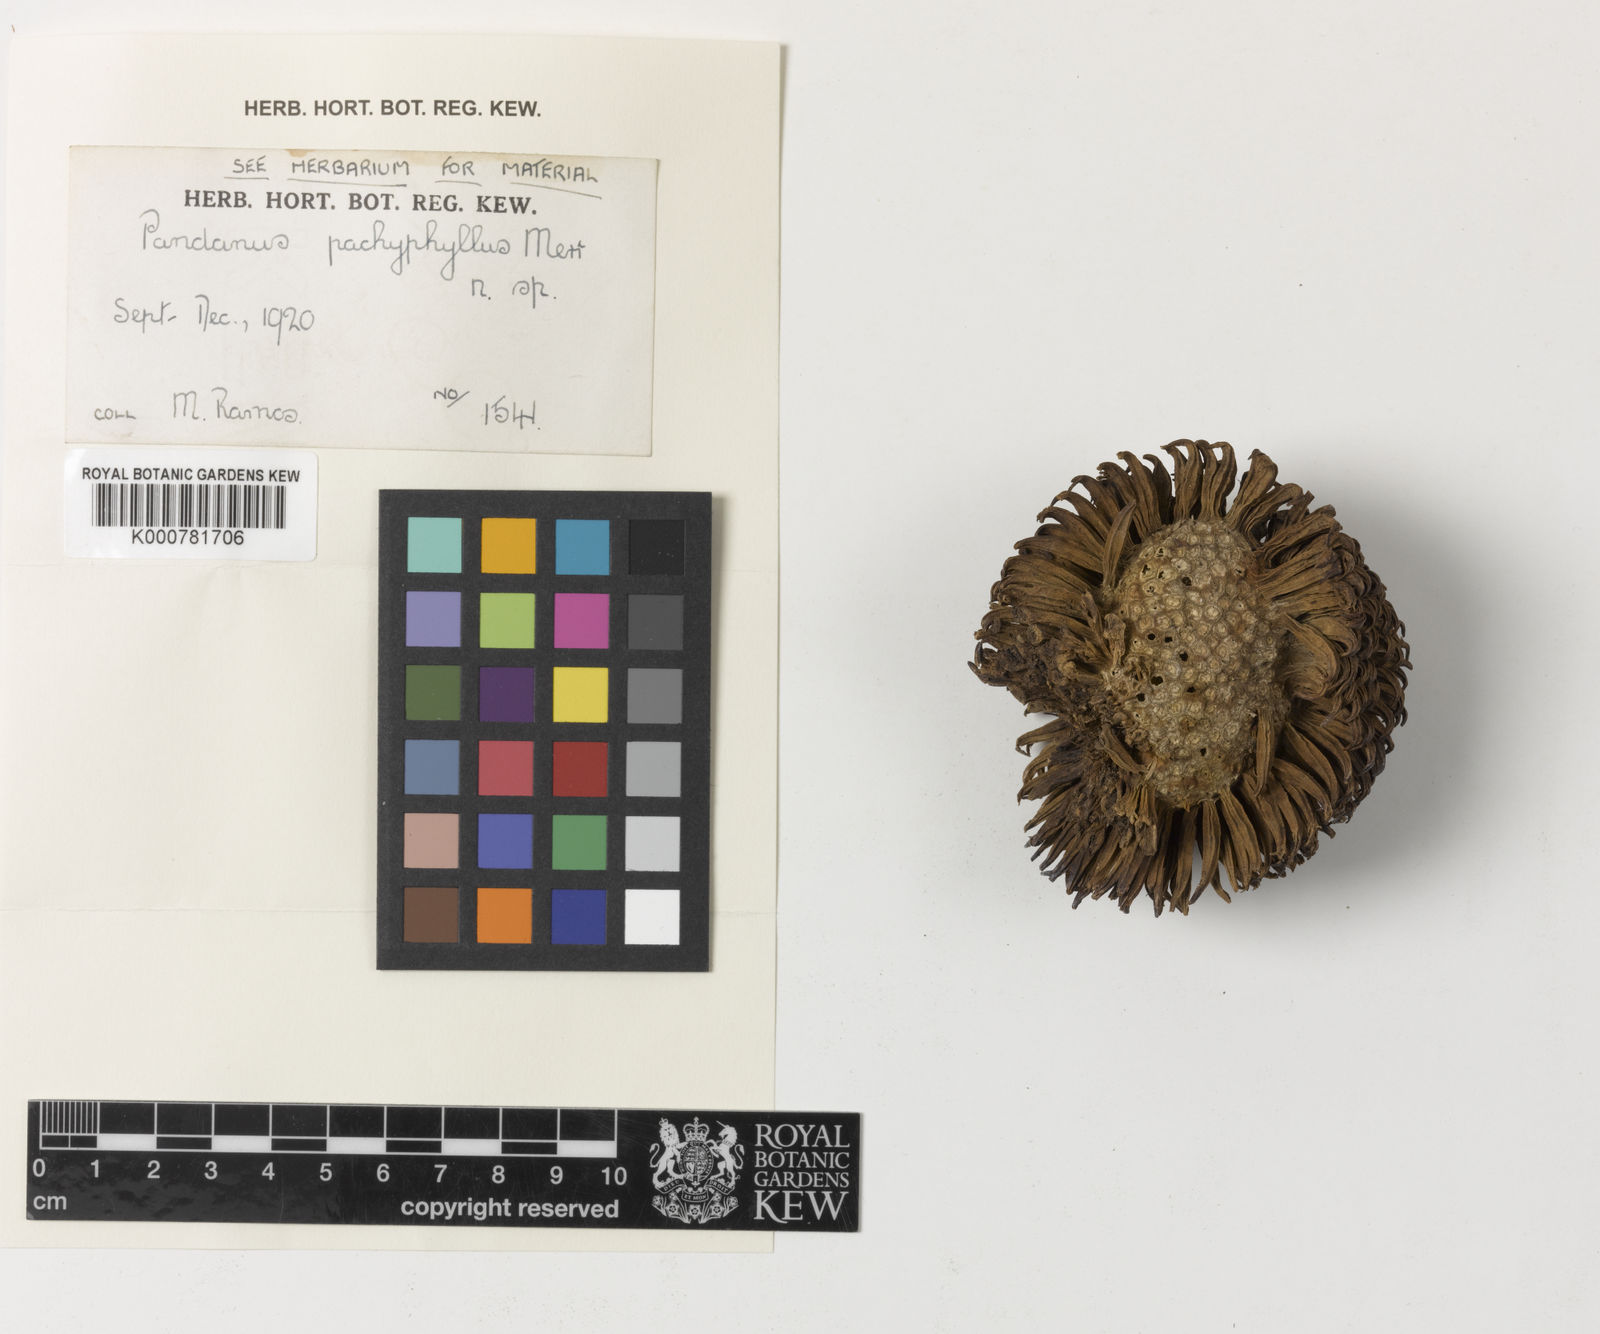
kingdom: Plantae
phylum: Tracheophyta
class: Liliopsida
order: Pandanales
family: Pandanaceae
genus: Benstonea
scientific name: Benstonea pachyphylla
